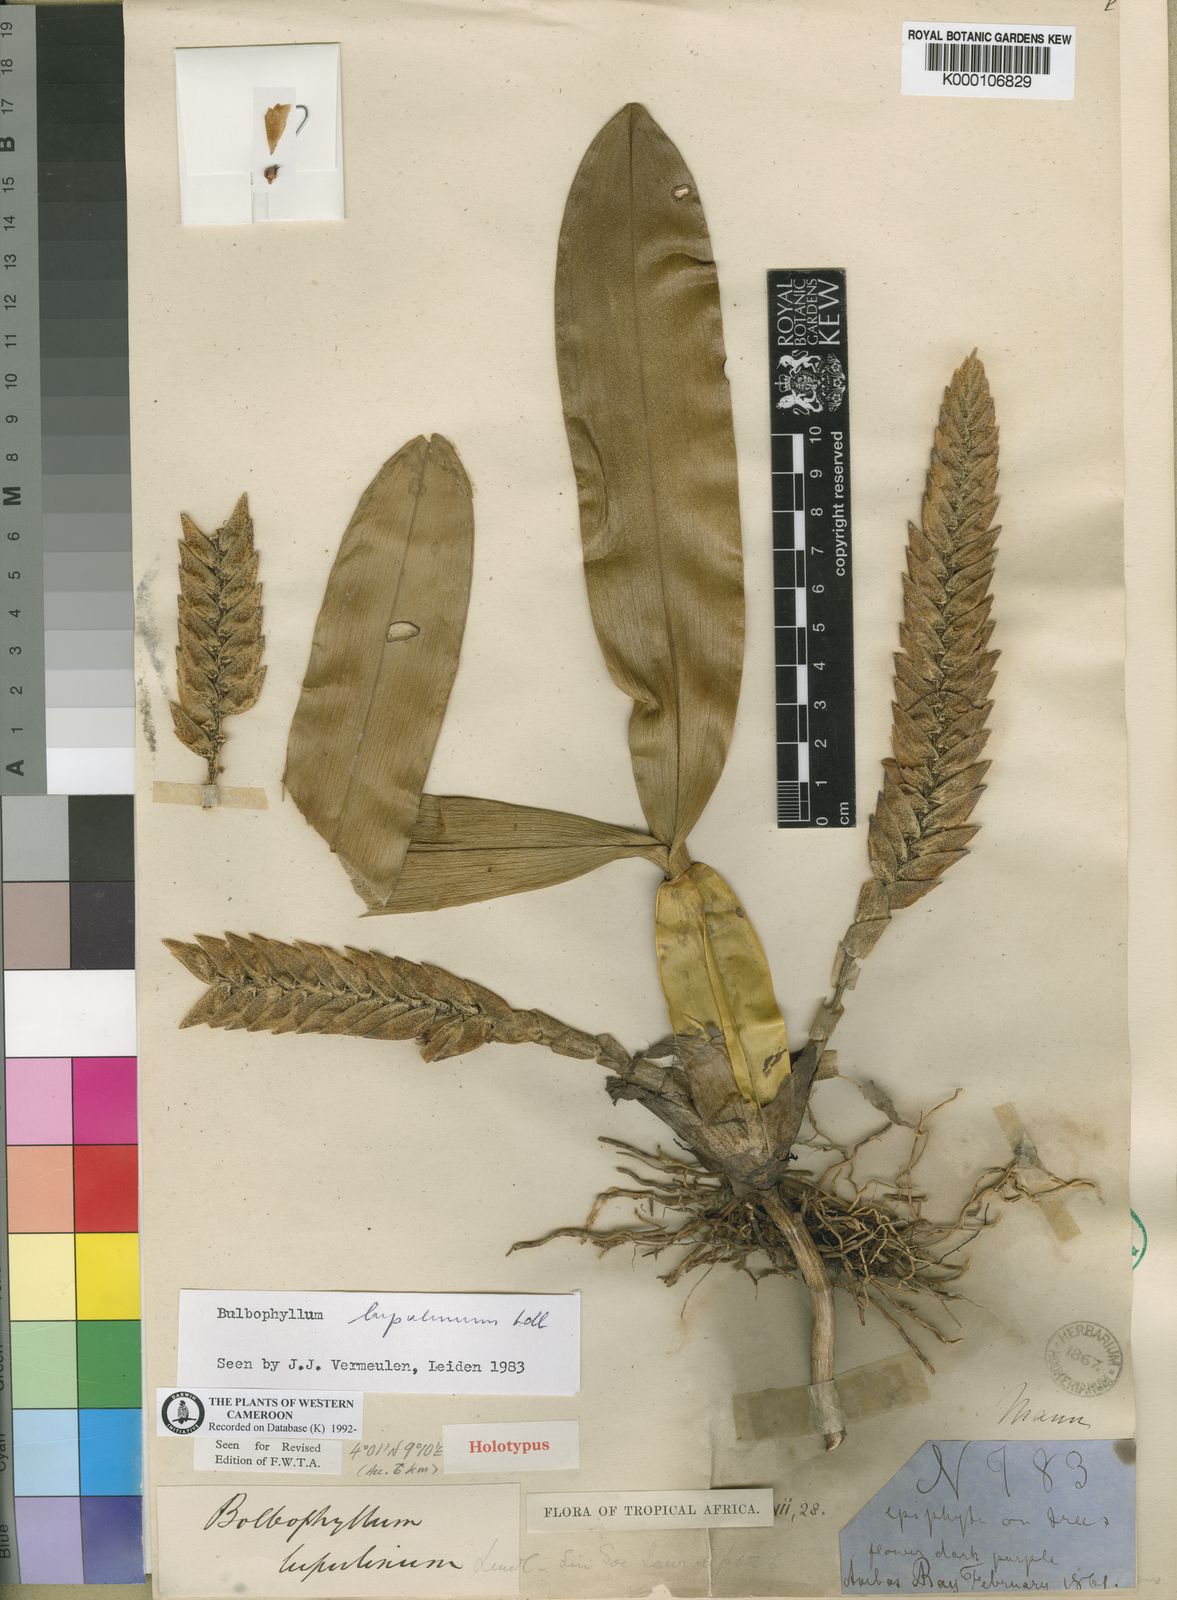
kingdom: Plantae
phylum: Tracheophyta
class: Liliopsida
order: Asparagales
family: Orchidaceae
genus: Bulbophyllum
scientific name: Bulbophyllum lupulinum
